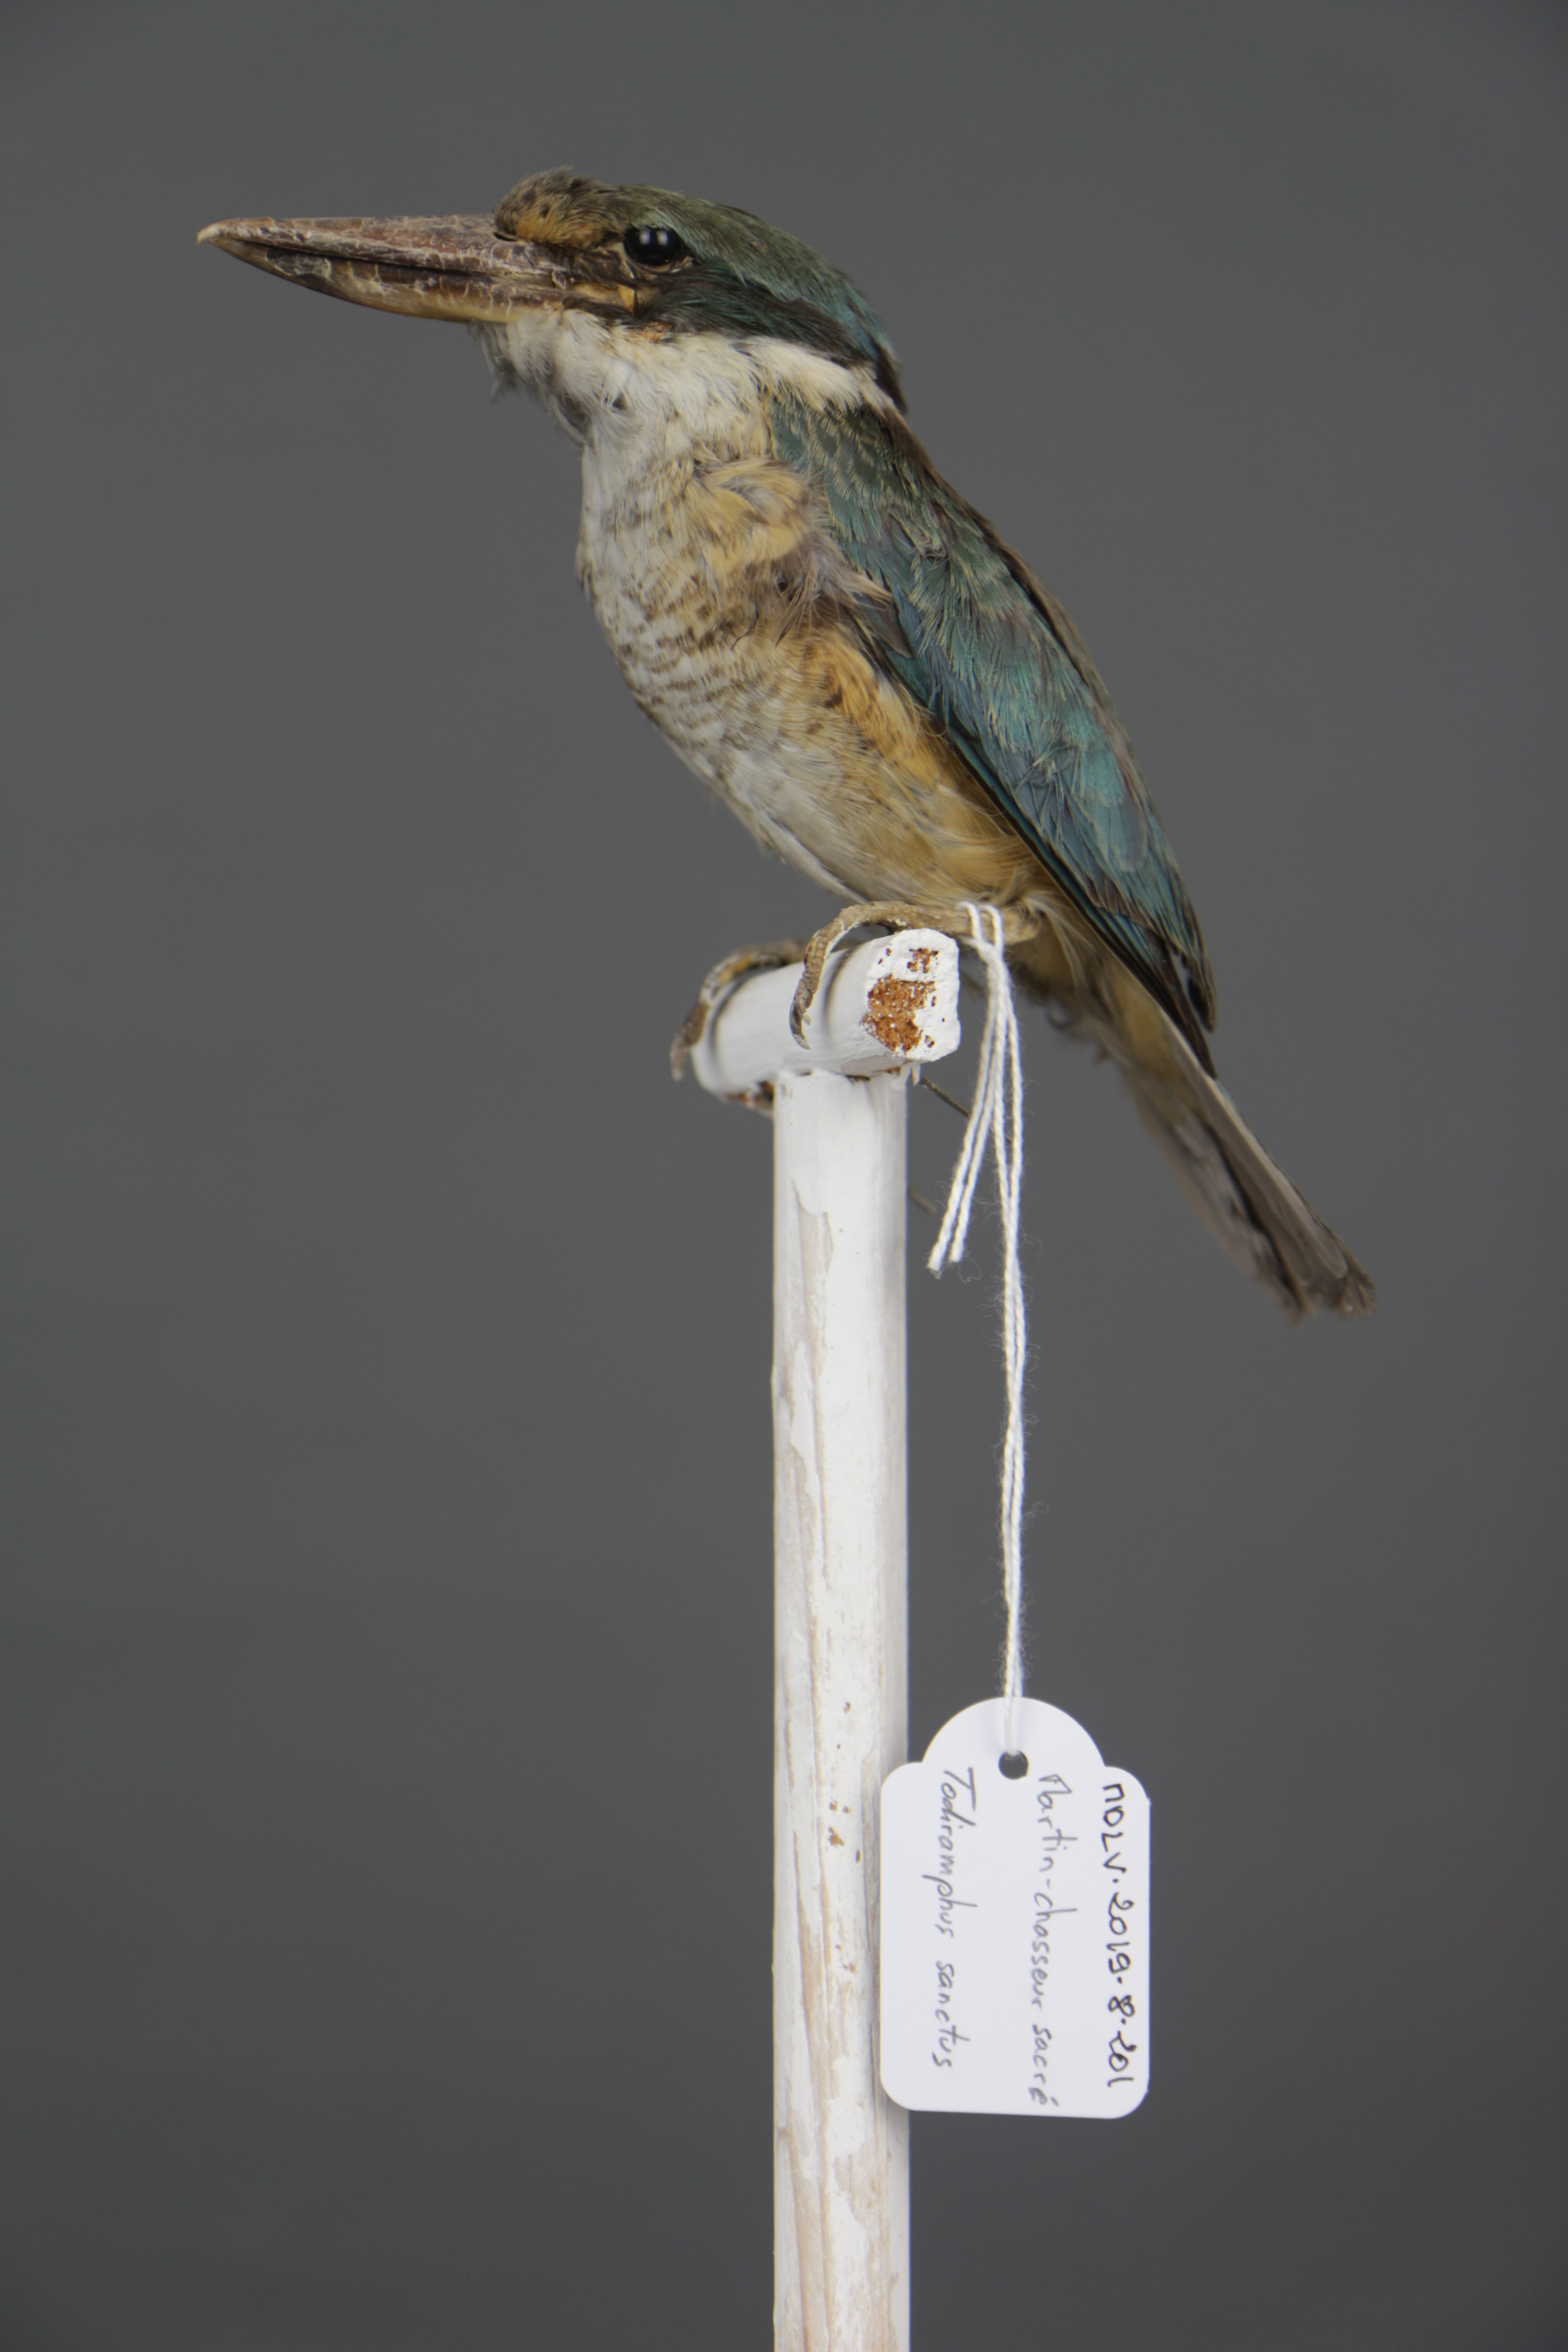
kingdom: Animalia
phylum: Chordata
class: Aves
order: Coraciiformes
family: Alcedinidae
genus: Todiramphus
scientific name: Todiramphus sanctus
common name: Sacred kingfisher
